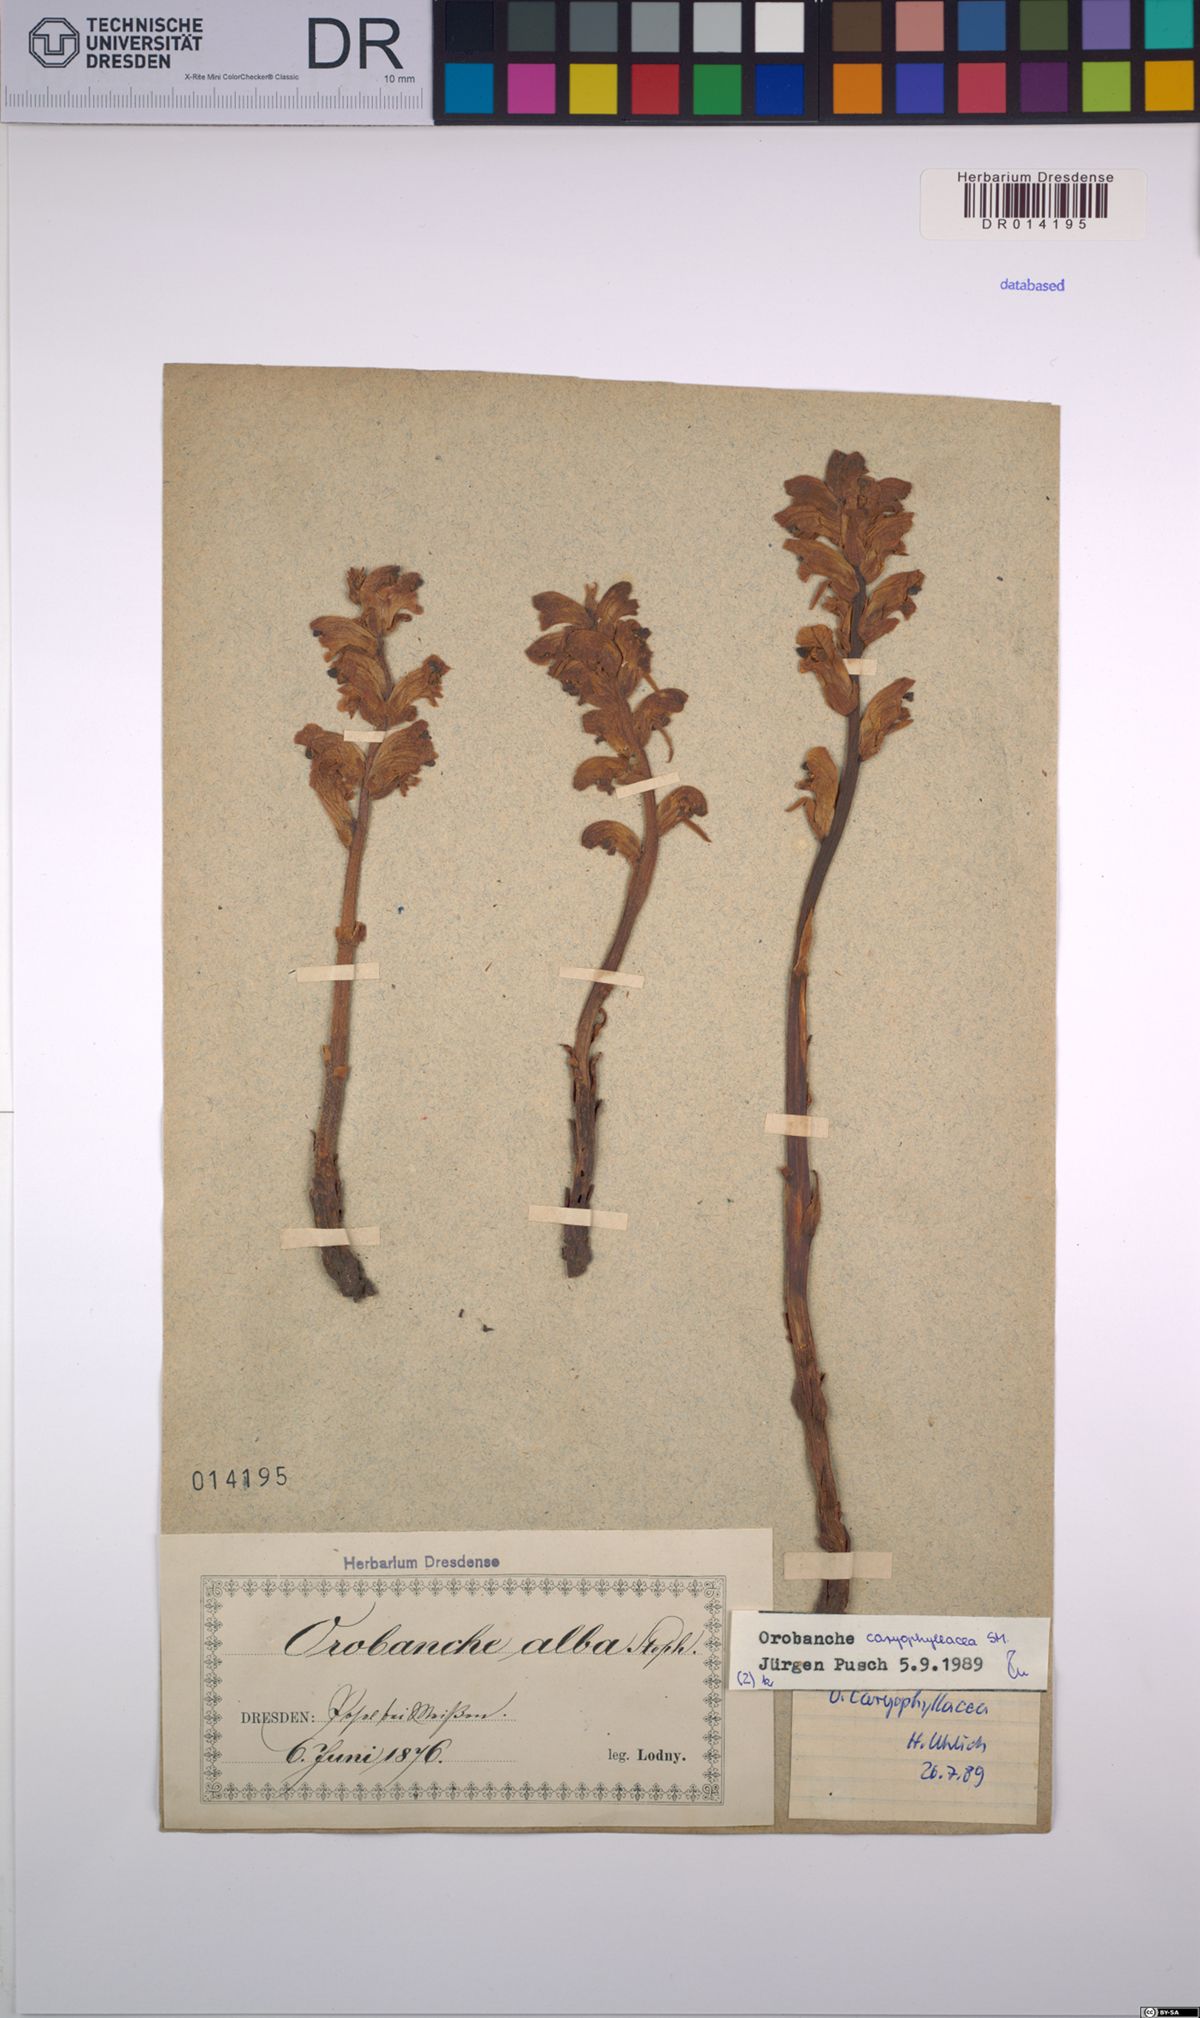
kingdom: Plantae
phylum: Tracheophyta
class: Magnoliopsida
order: Lamiales
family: Orobanchaceae
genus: Orobanche
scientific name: Orobanche caryophyllacea
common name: Bedstraw broomrape
